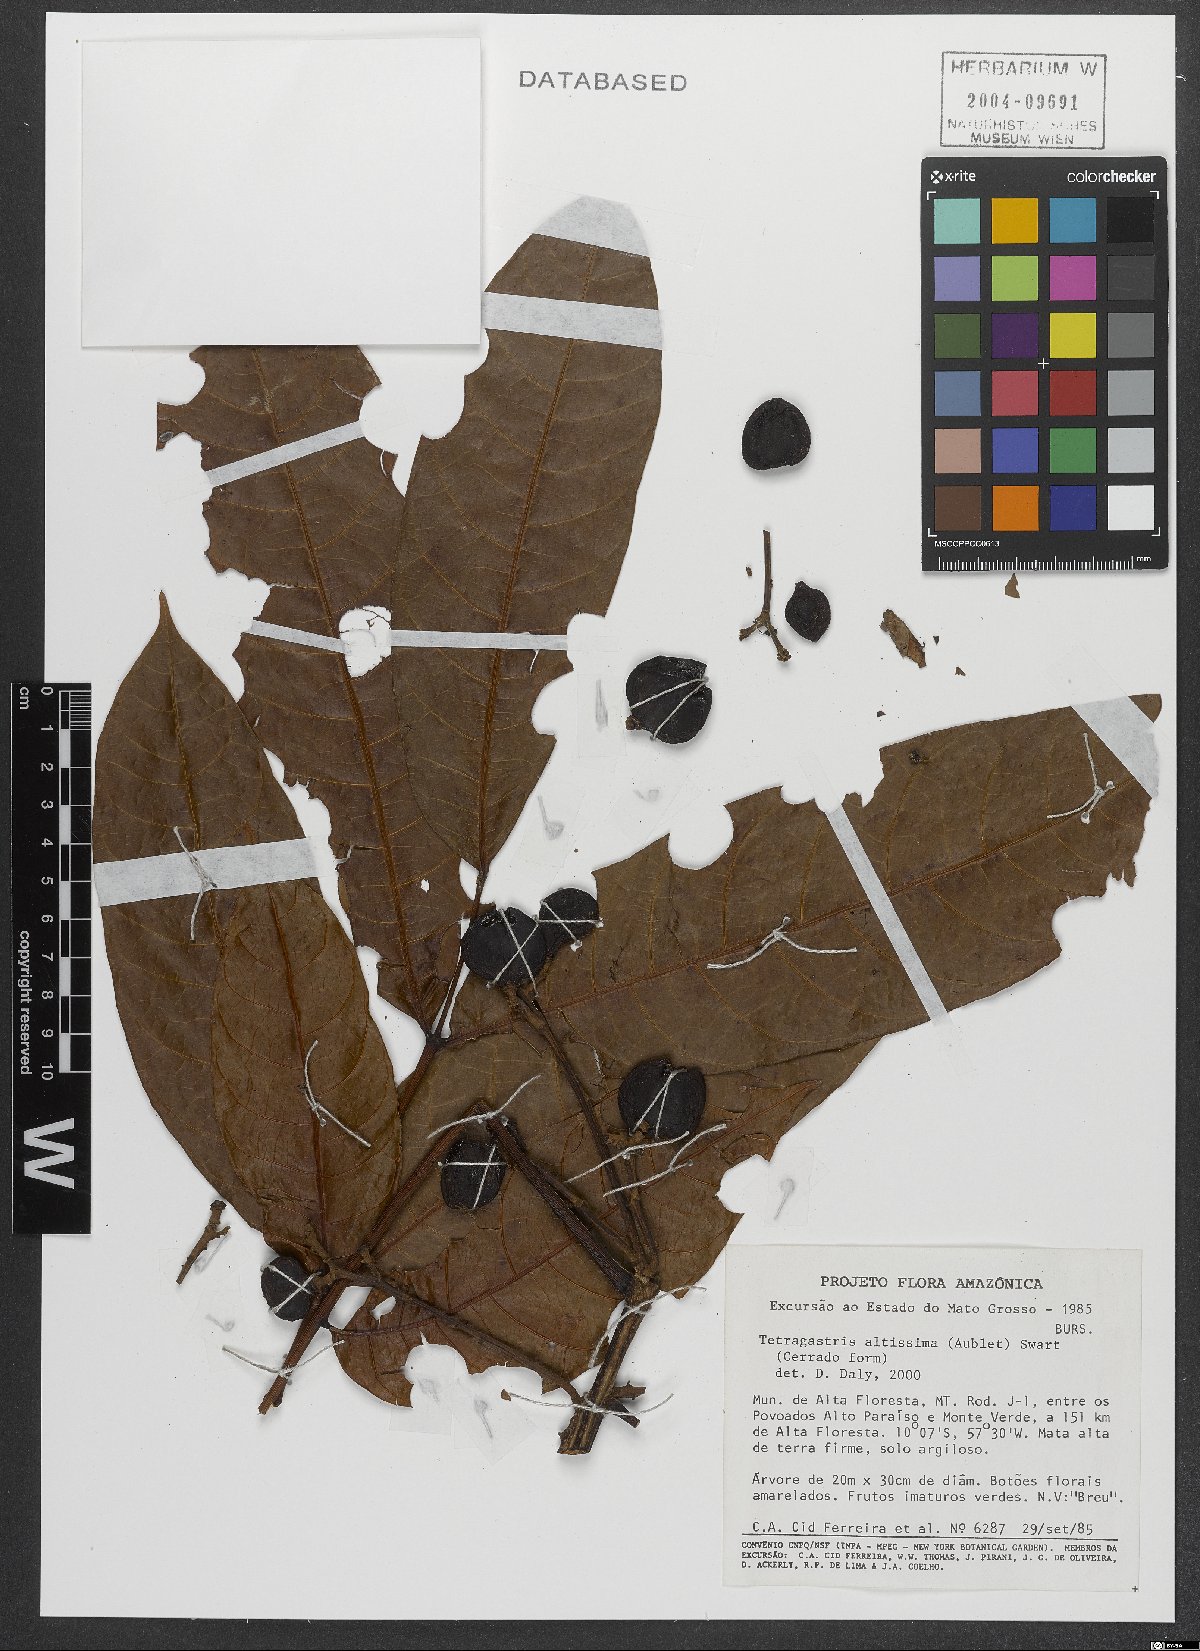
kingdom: Plantae
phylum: Tracheophyta
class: Magnoliopsida
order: Sapindales
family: Burseraceae
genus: Tetragastris
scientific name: Tetragastris altissima
